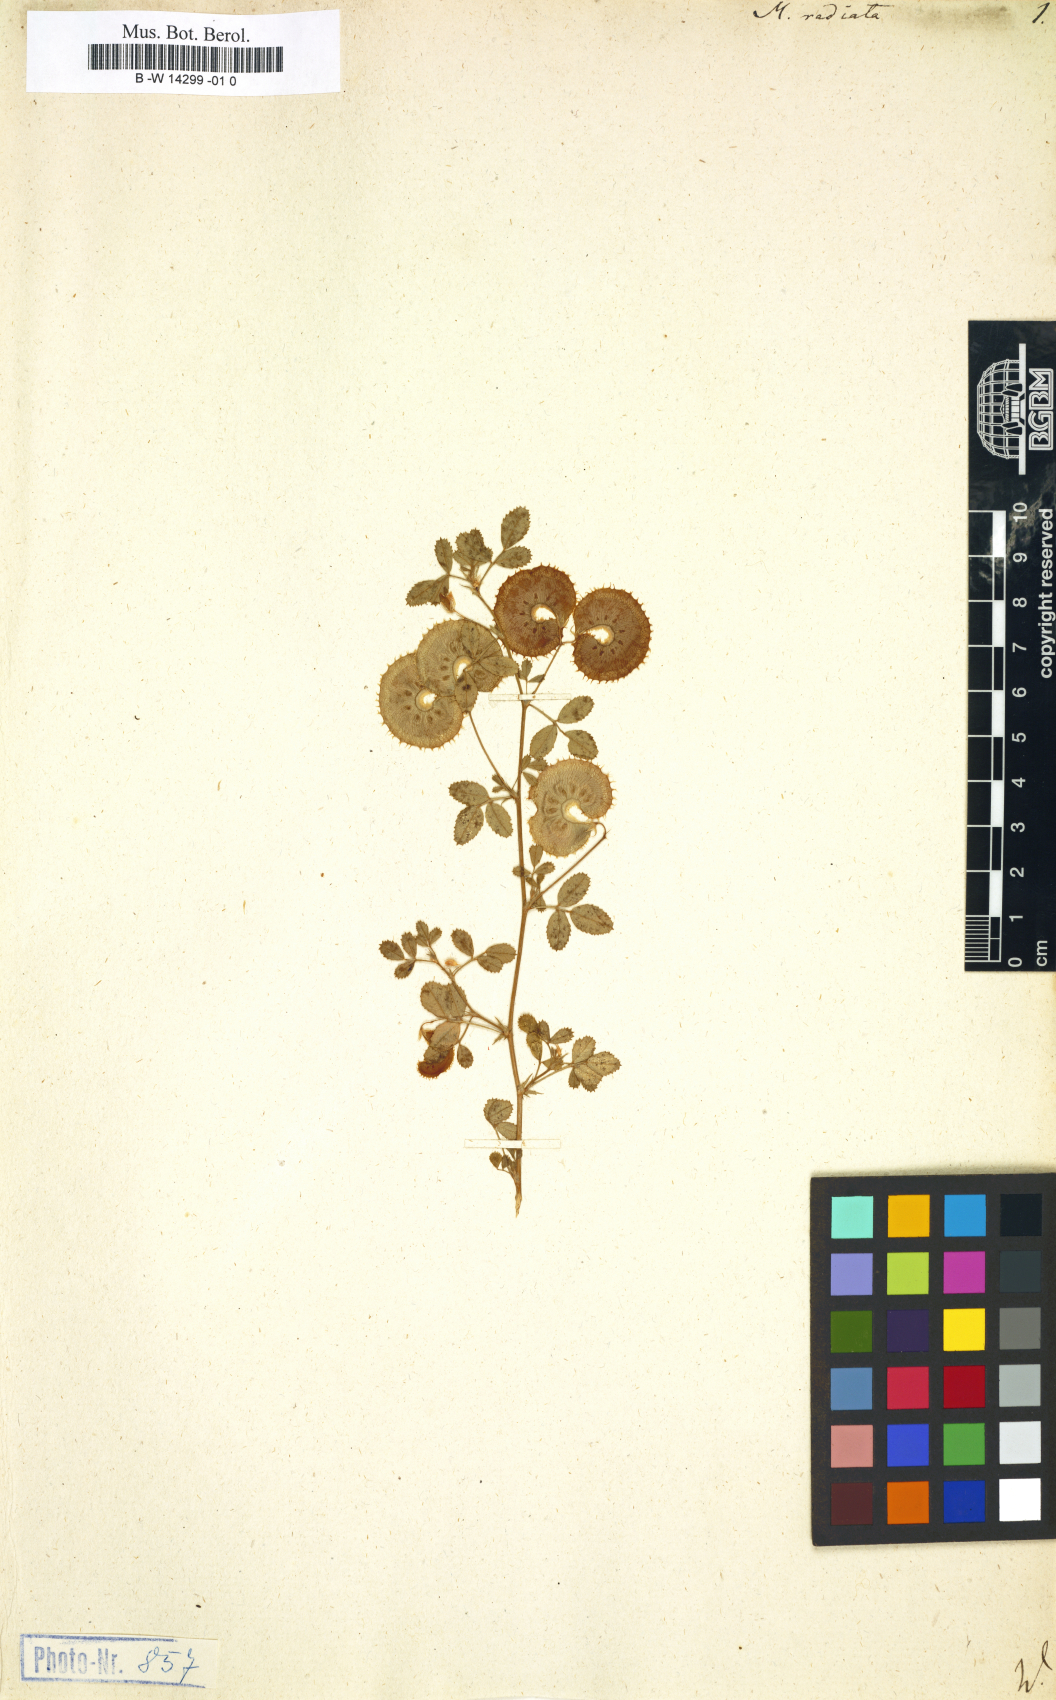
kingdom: Plantae
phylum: Tracheophyta
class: Magnoliopsida
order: Fabales
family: Fabaceae
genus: Medicago
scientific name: Medicago radiata
